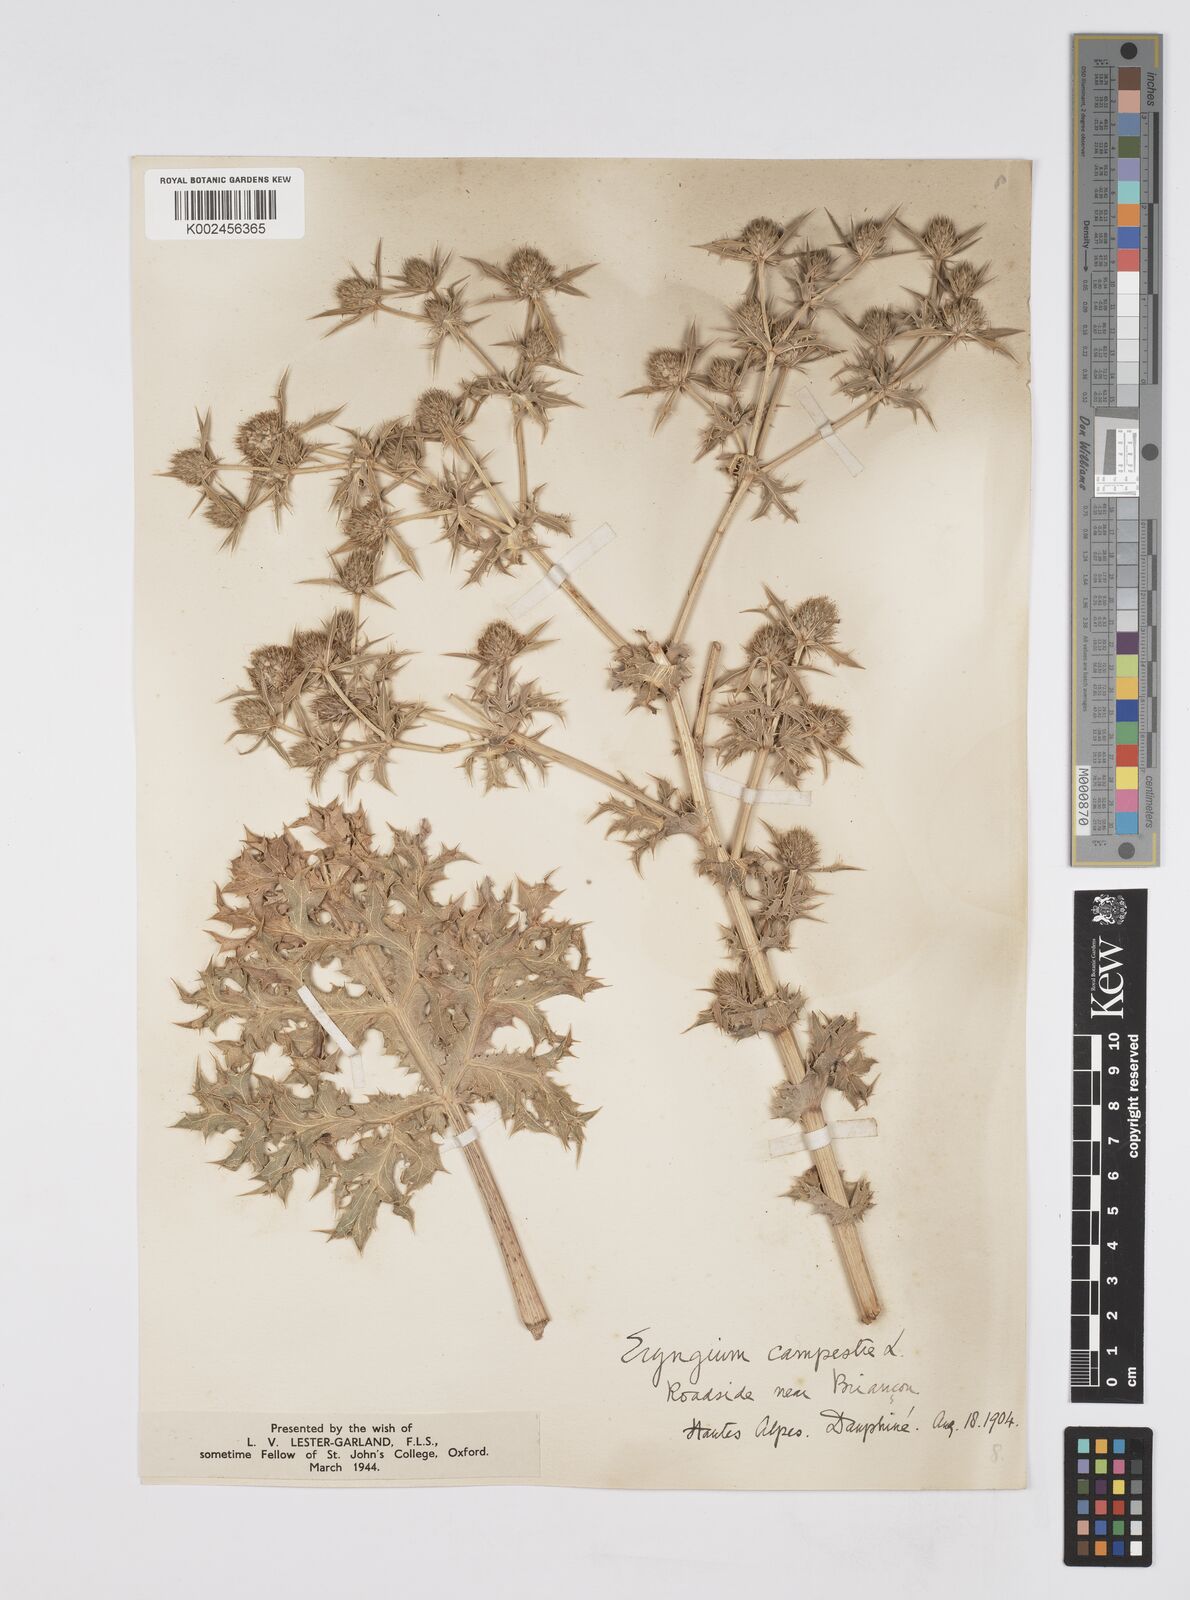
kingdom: Plantae
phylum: Tracheophyta
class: Magnoliopsida
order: Apiales
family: Apiaceae
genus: Eryngium
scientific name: Eryngium campestre
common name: Field eryngo
